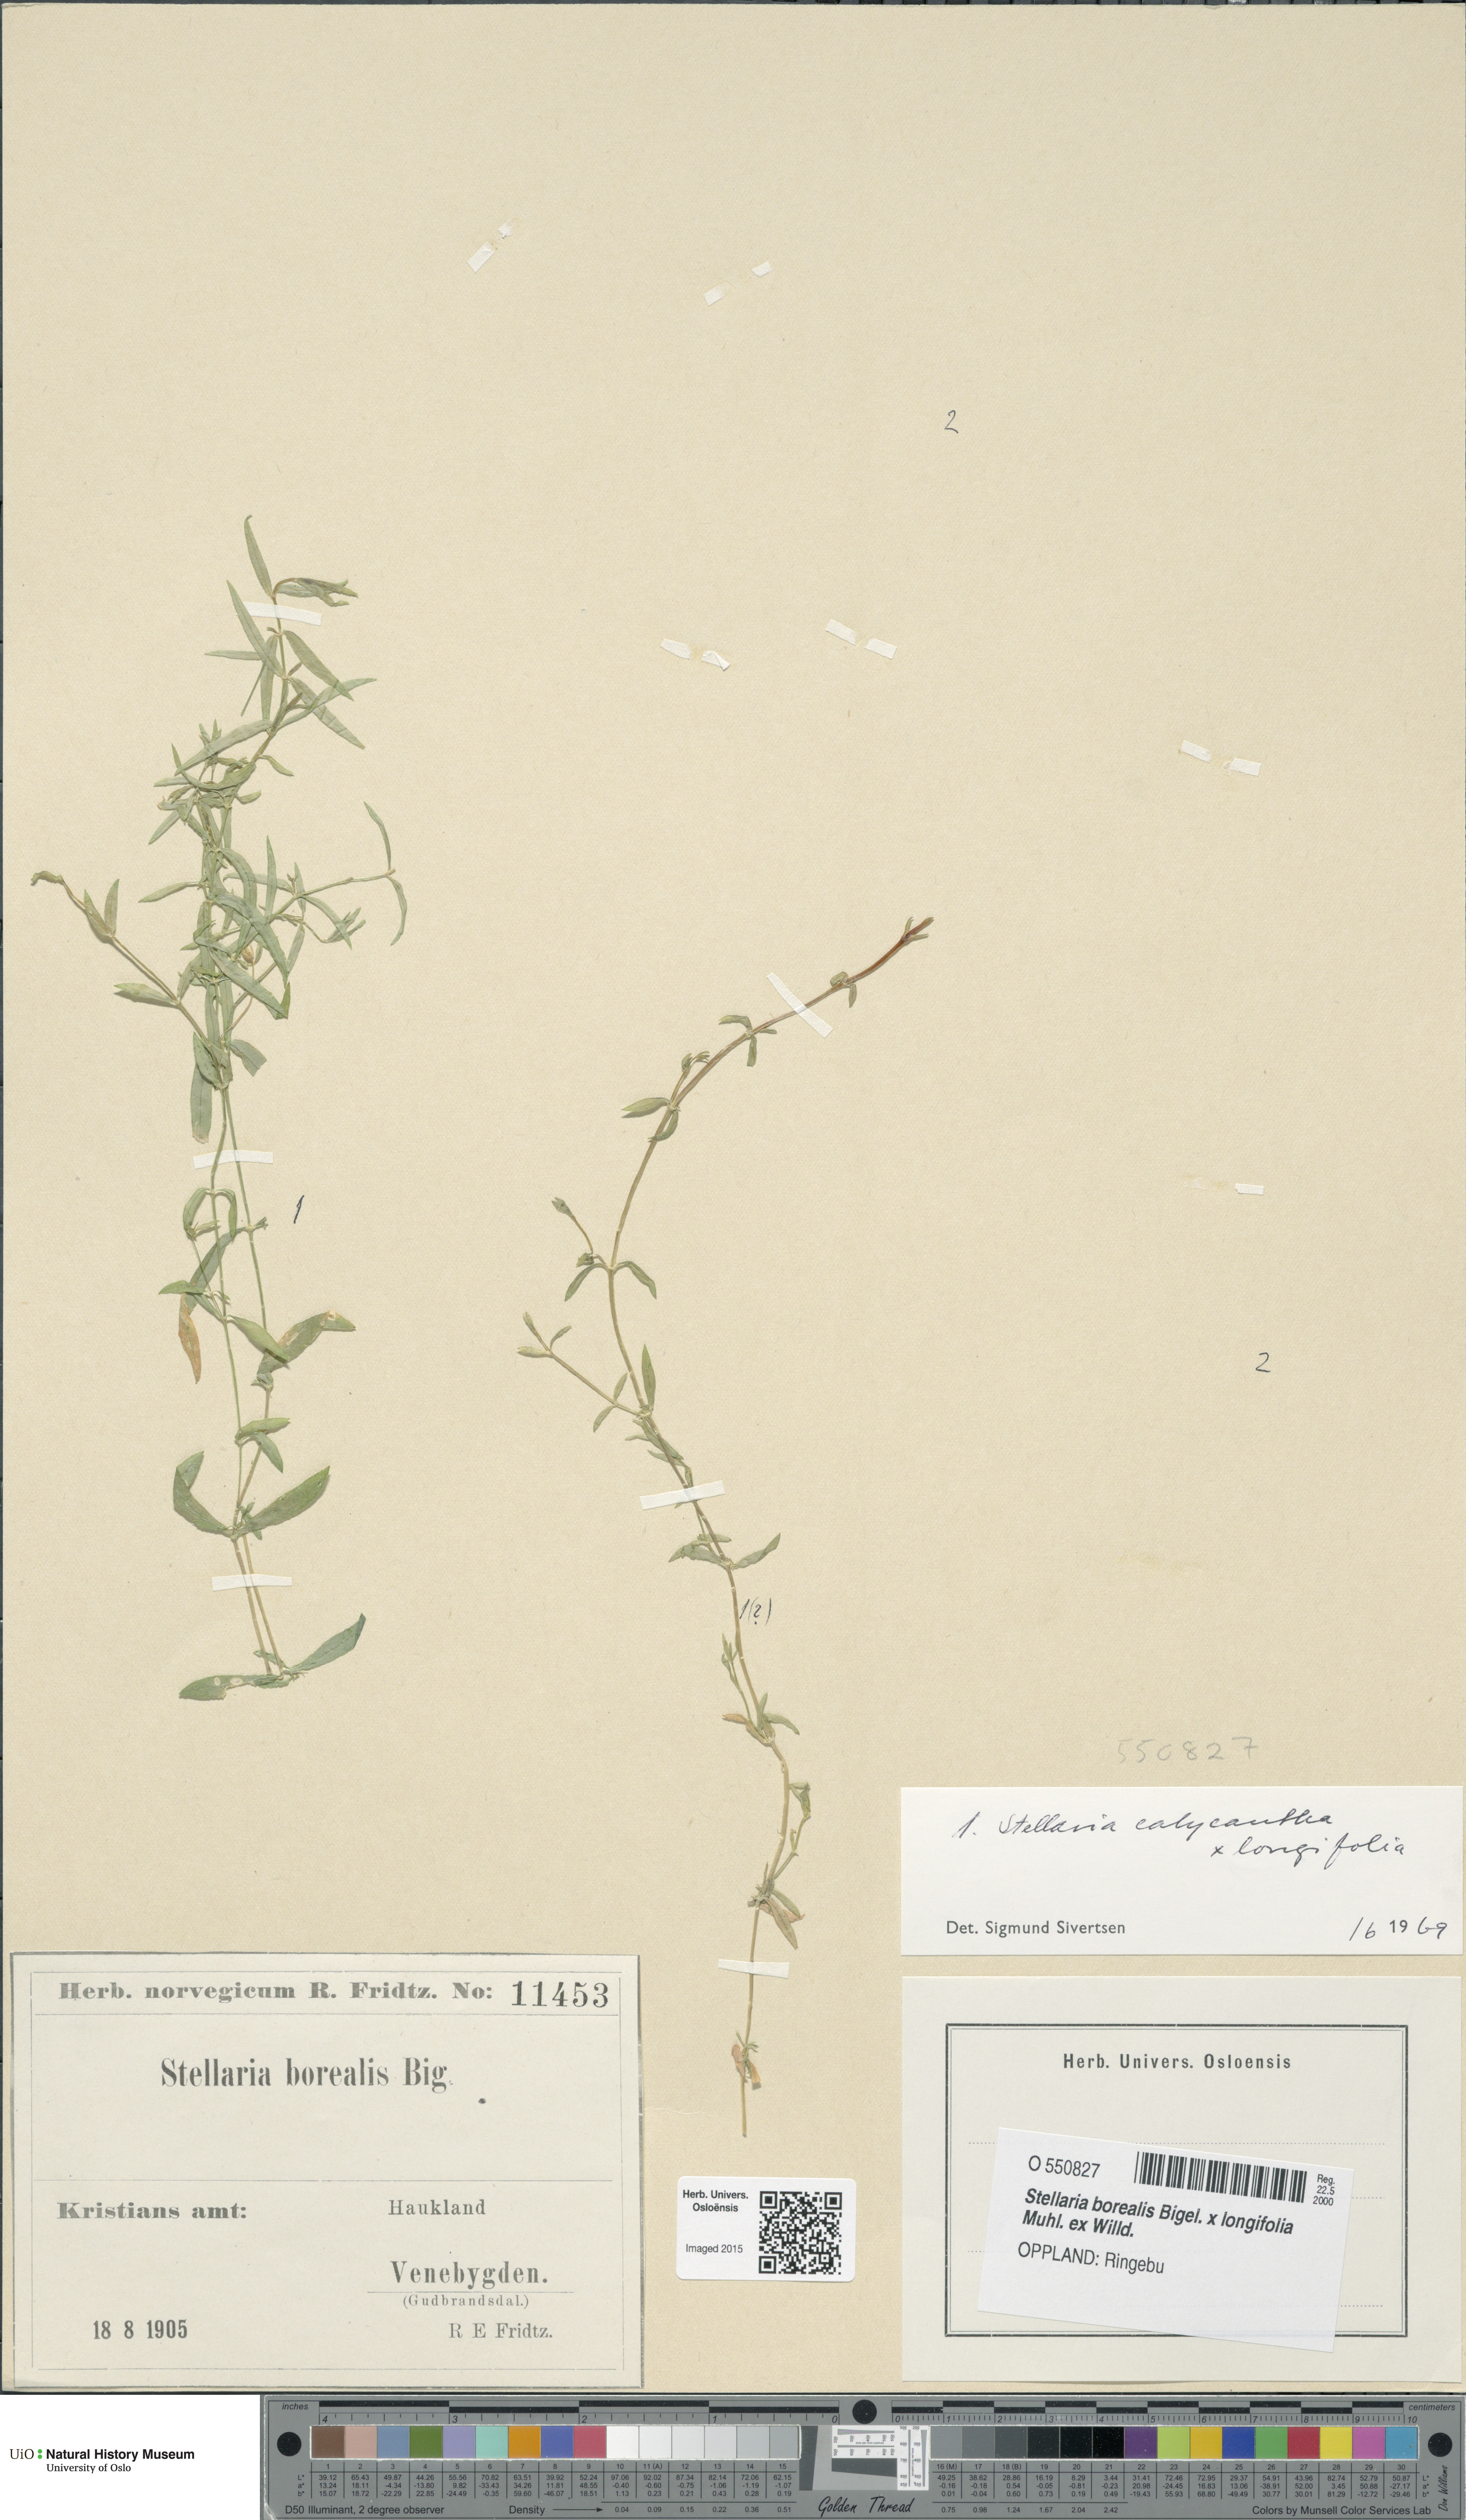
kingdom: Plantae
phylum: Tracheophyta
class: Magnoliopsida
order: Caryophyllales
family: Caryophyllaceae
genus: Stellaria
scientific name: Stellaria
